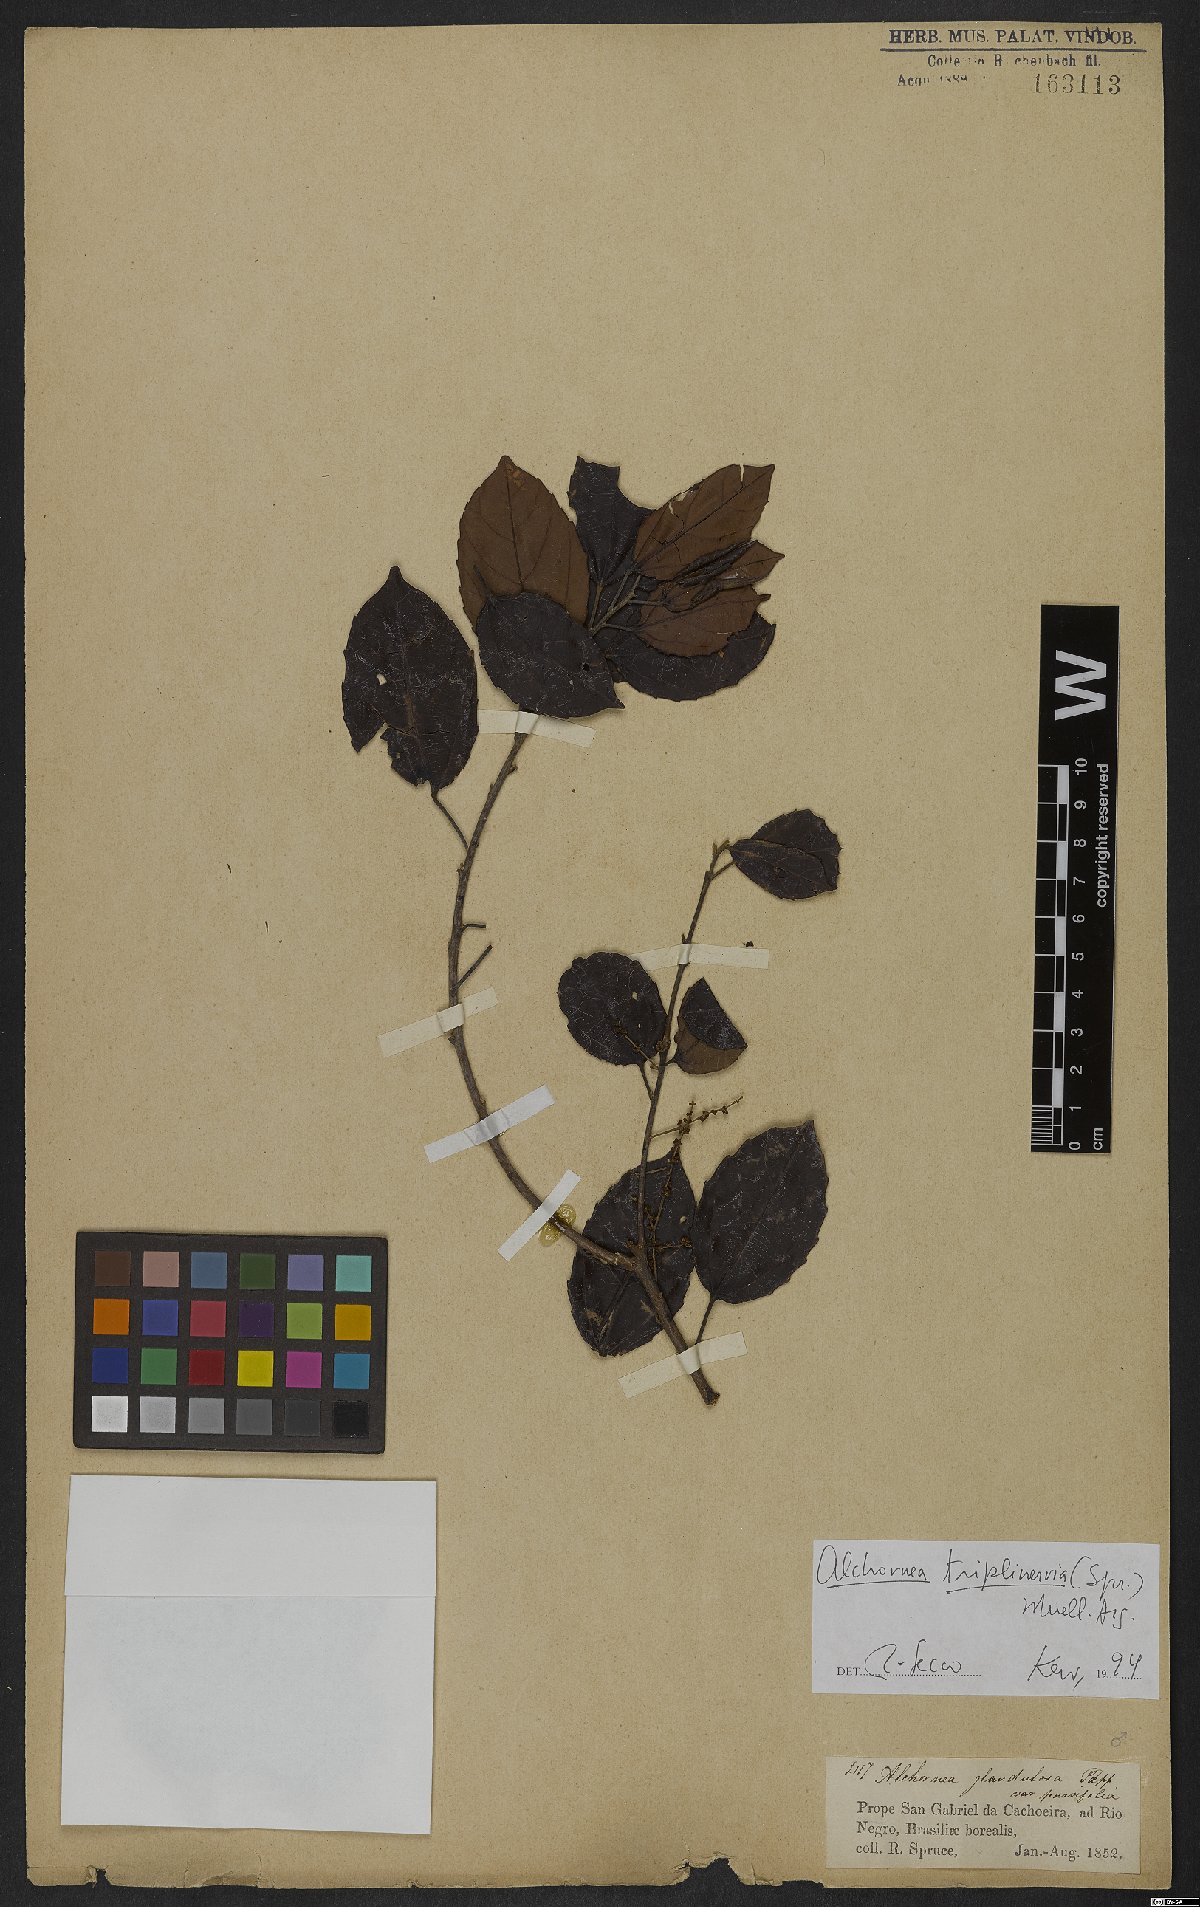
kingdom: Plantae
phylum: Tracheophyta
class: Magnoliopsida
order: Malpighiales
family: Euphorbiaceae
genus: Alchornea
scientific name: Alchornea triplinervia
